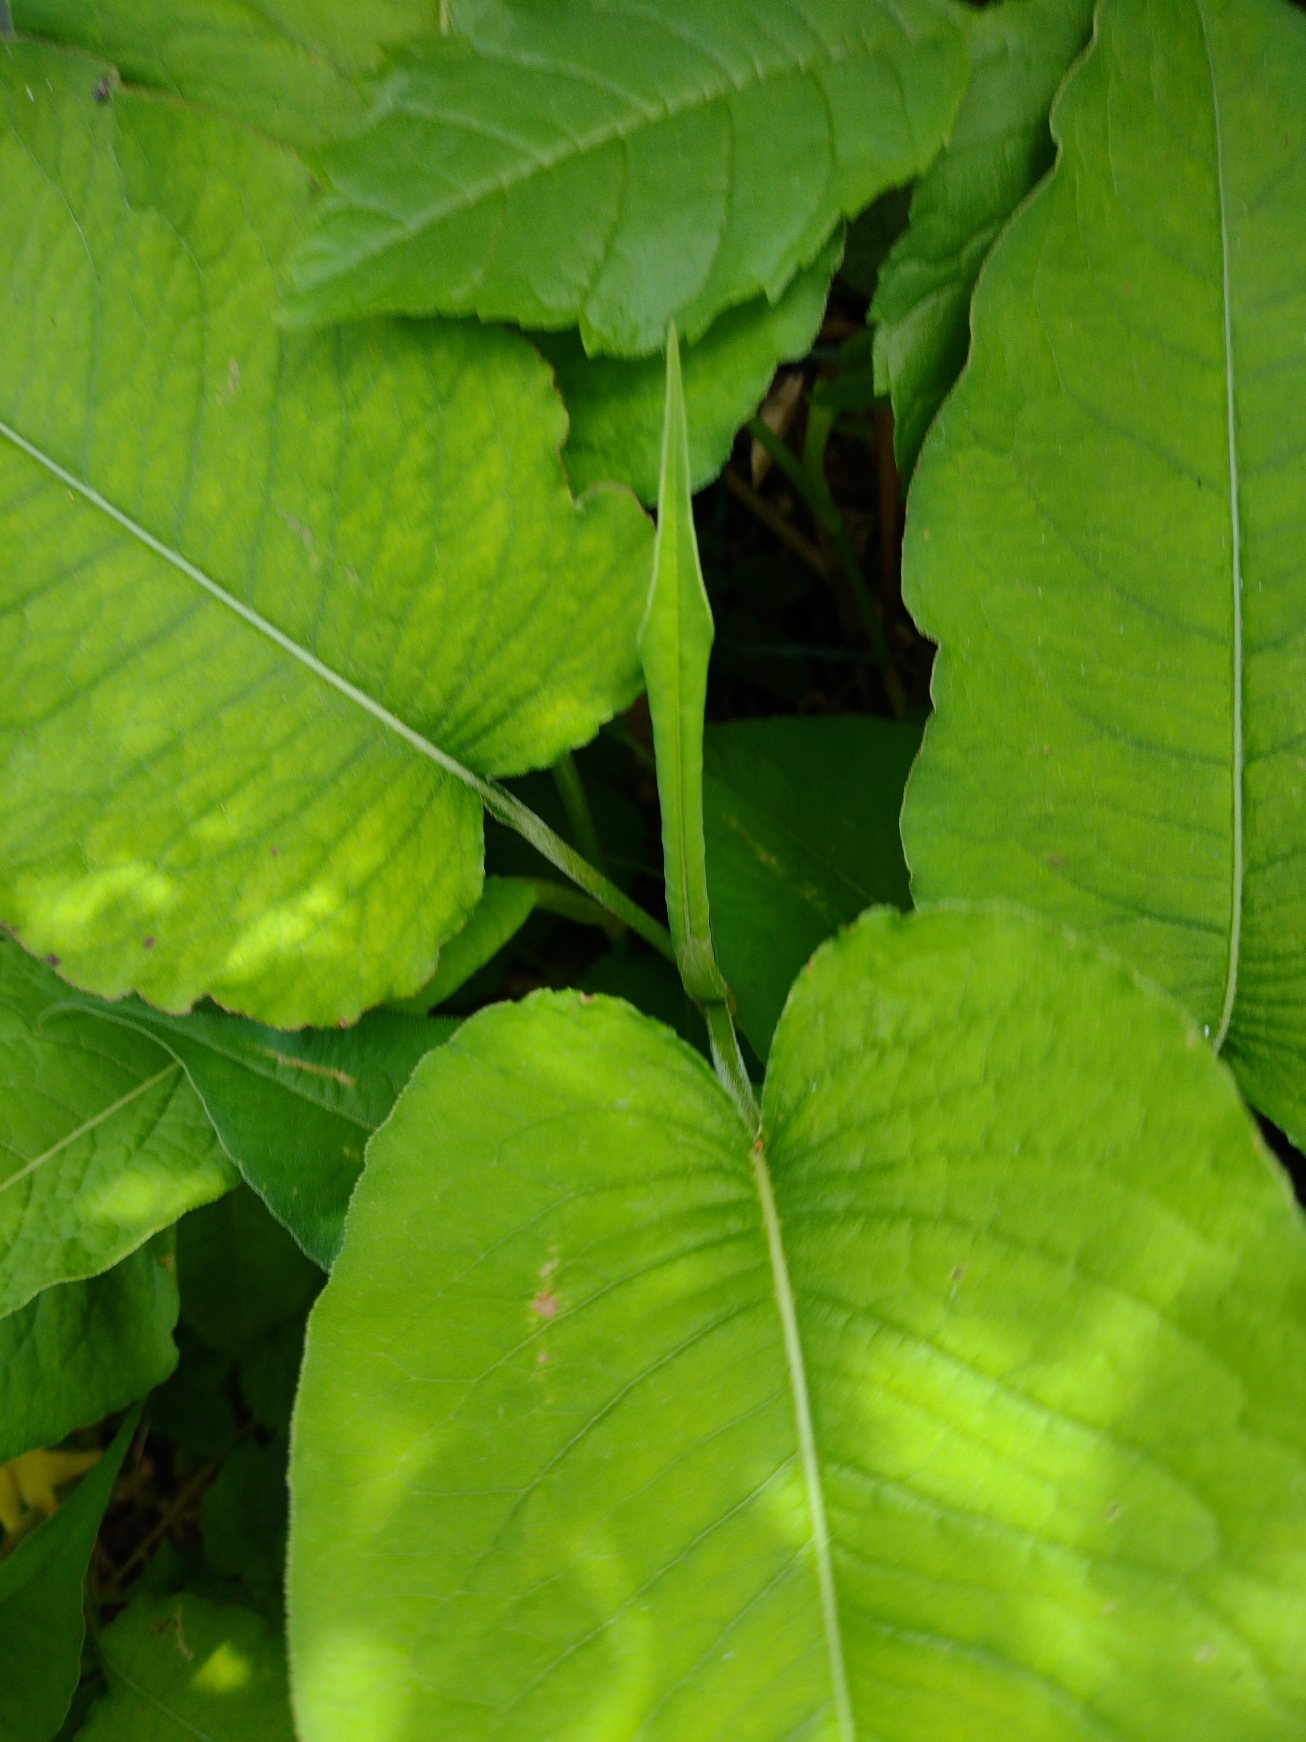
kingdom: Plantae
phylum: Tracheophyta
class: Magnoliopsida
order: Caryophyllales
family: Polygonaceae
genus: Bistorta
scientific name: Bistorta officinalis
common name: Slangeurt
